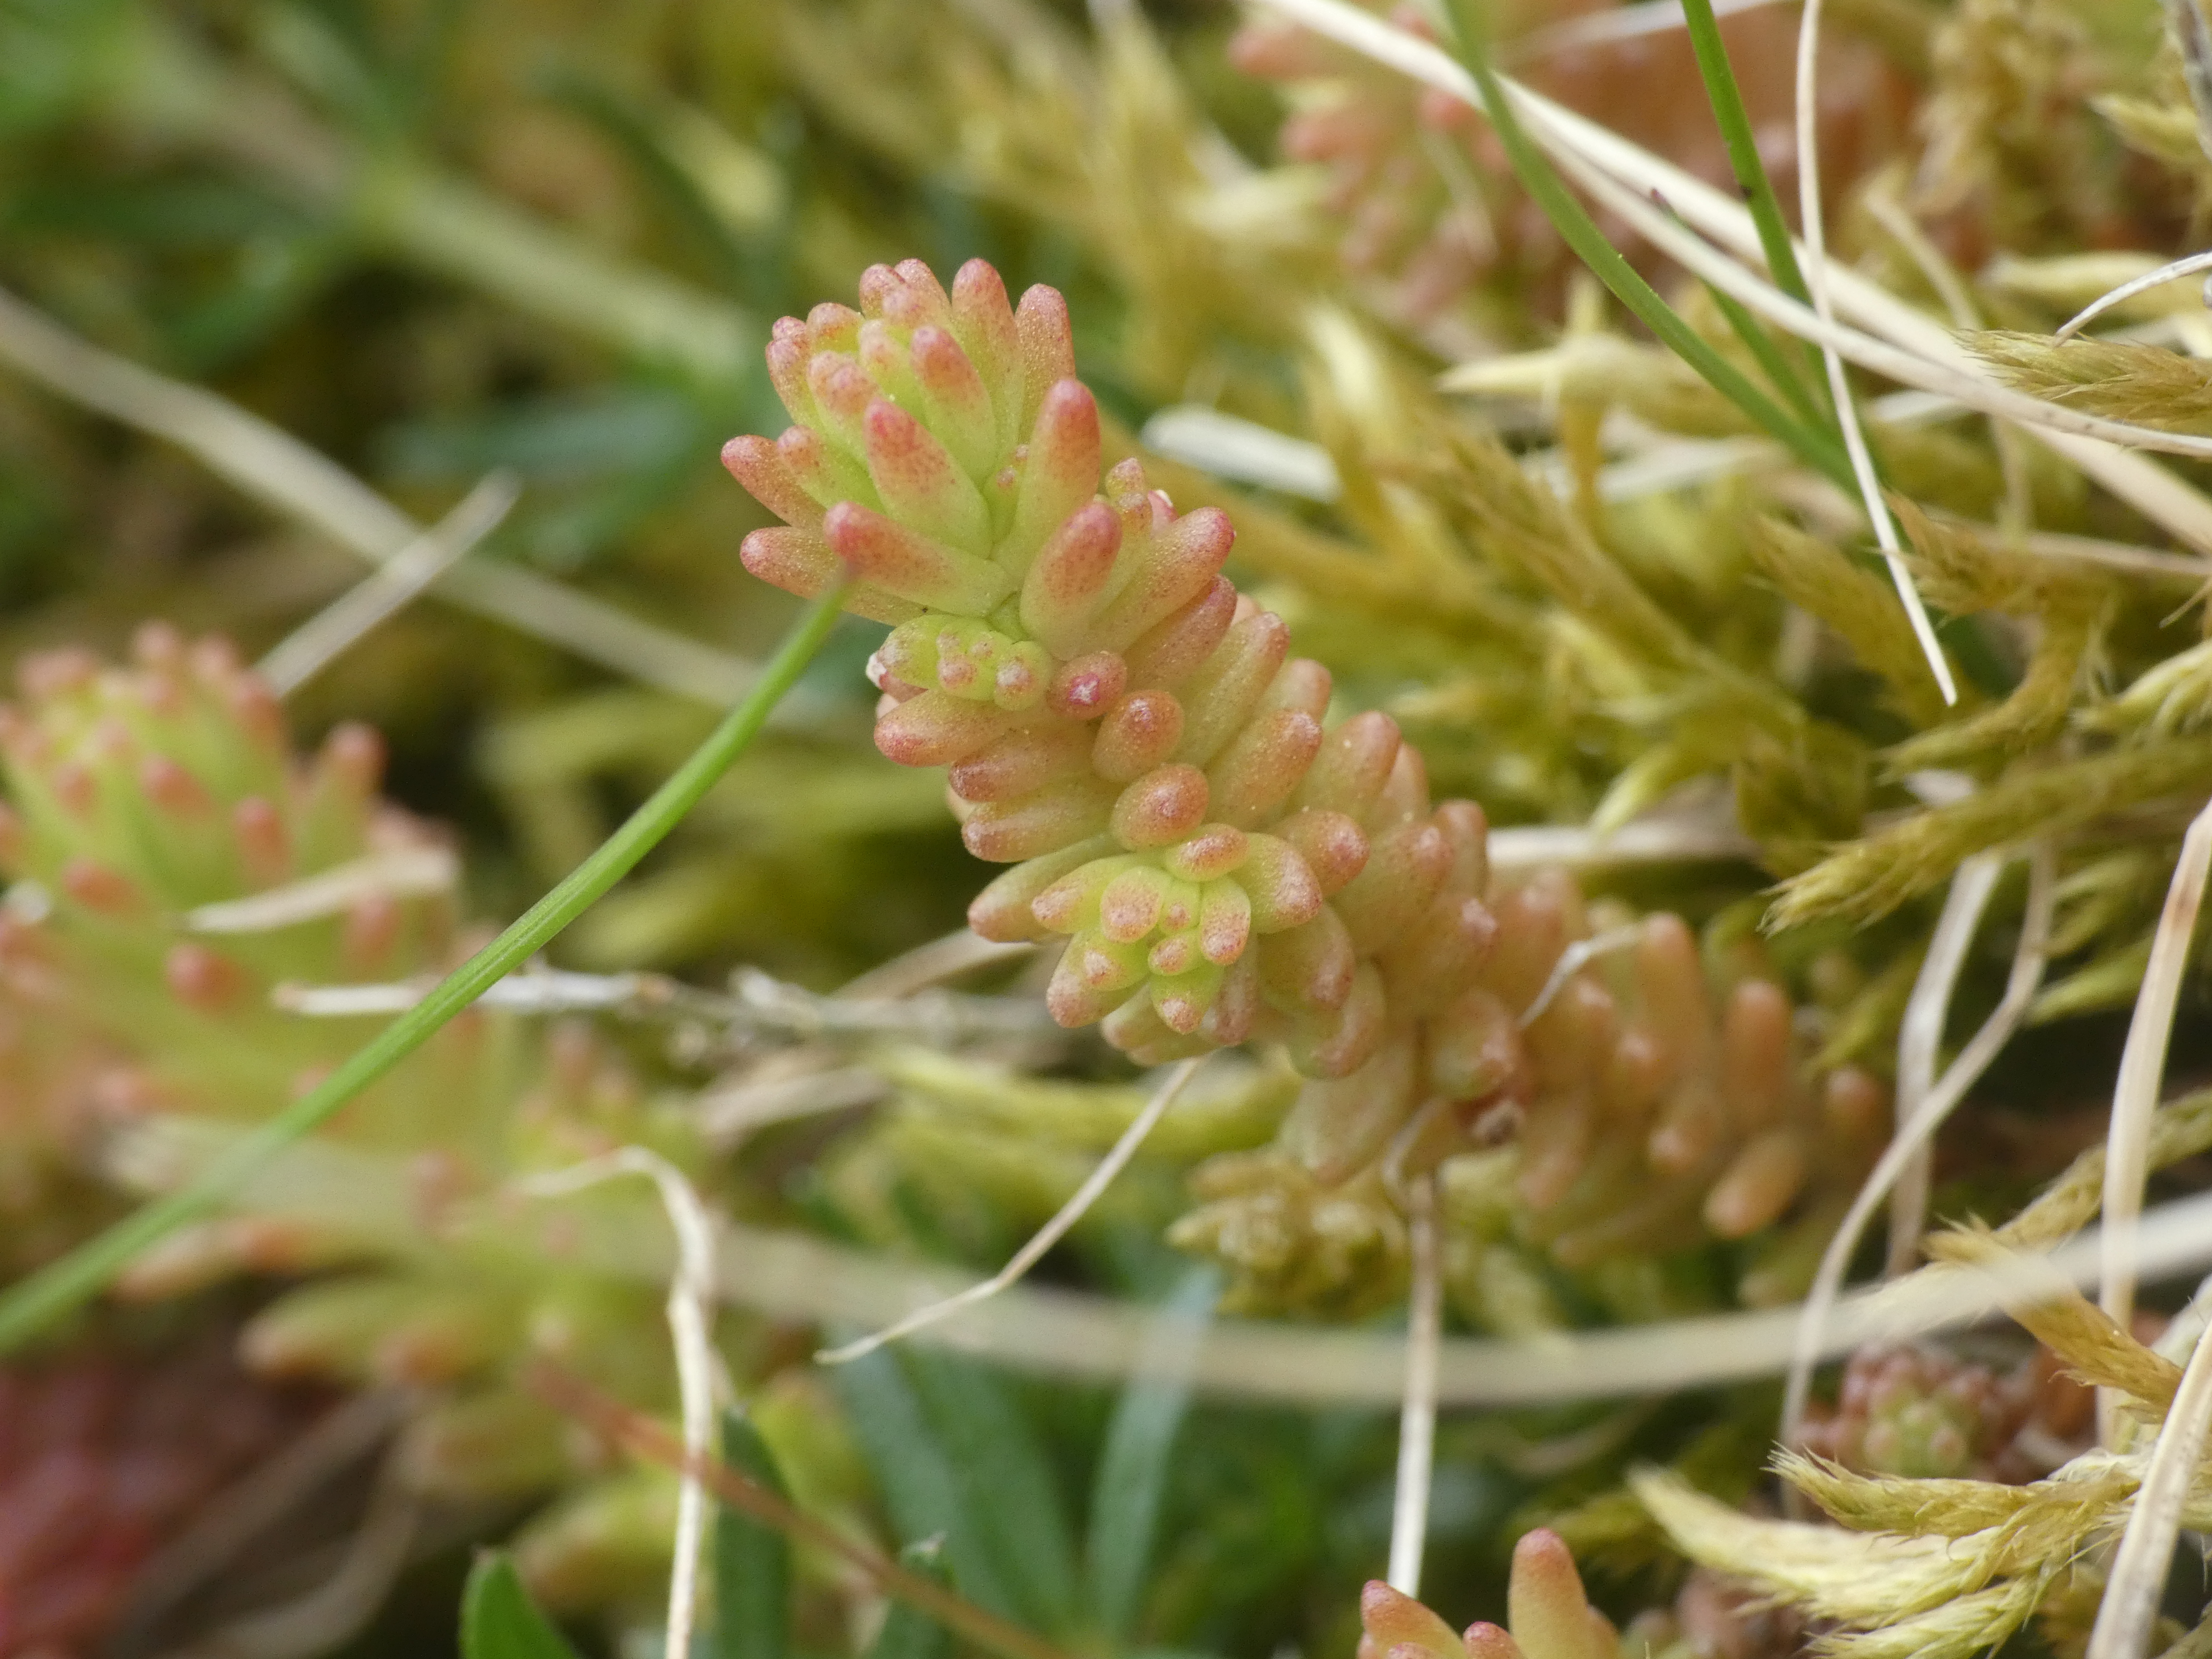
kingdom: Plantae
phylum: Tracheophyta
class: Magnoliopsida
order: Saxifragales
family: Crassulaceae
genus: Sedum
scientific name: Sedum sexangulare
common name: Seksradet stenurt
